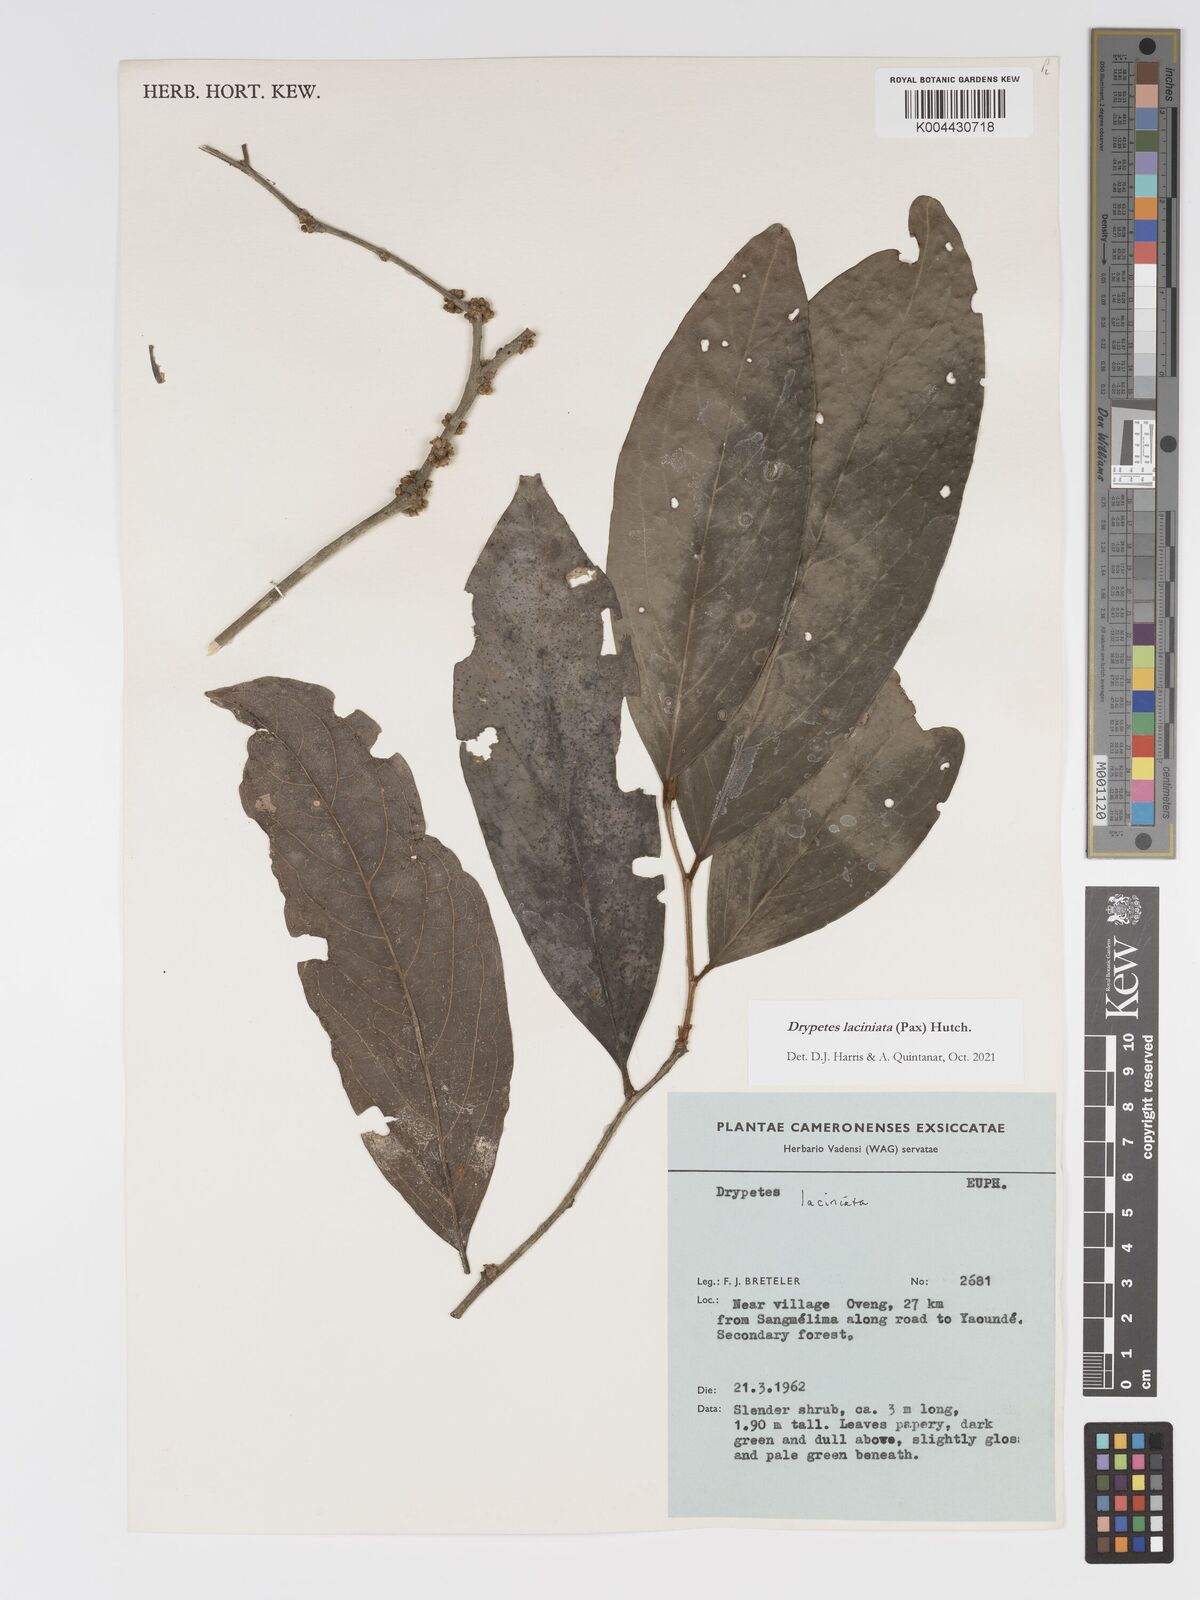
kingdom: Plantae
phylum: Tracheophyta
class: Magnoliopsida
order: Malpighiales
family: Putranjivaceae
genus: Drypetes
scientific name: Drypetes laciniata
